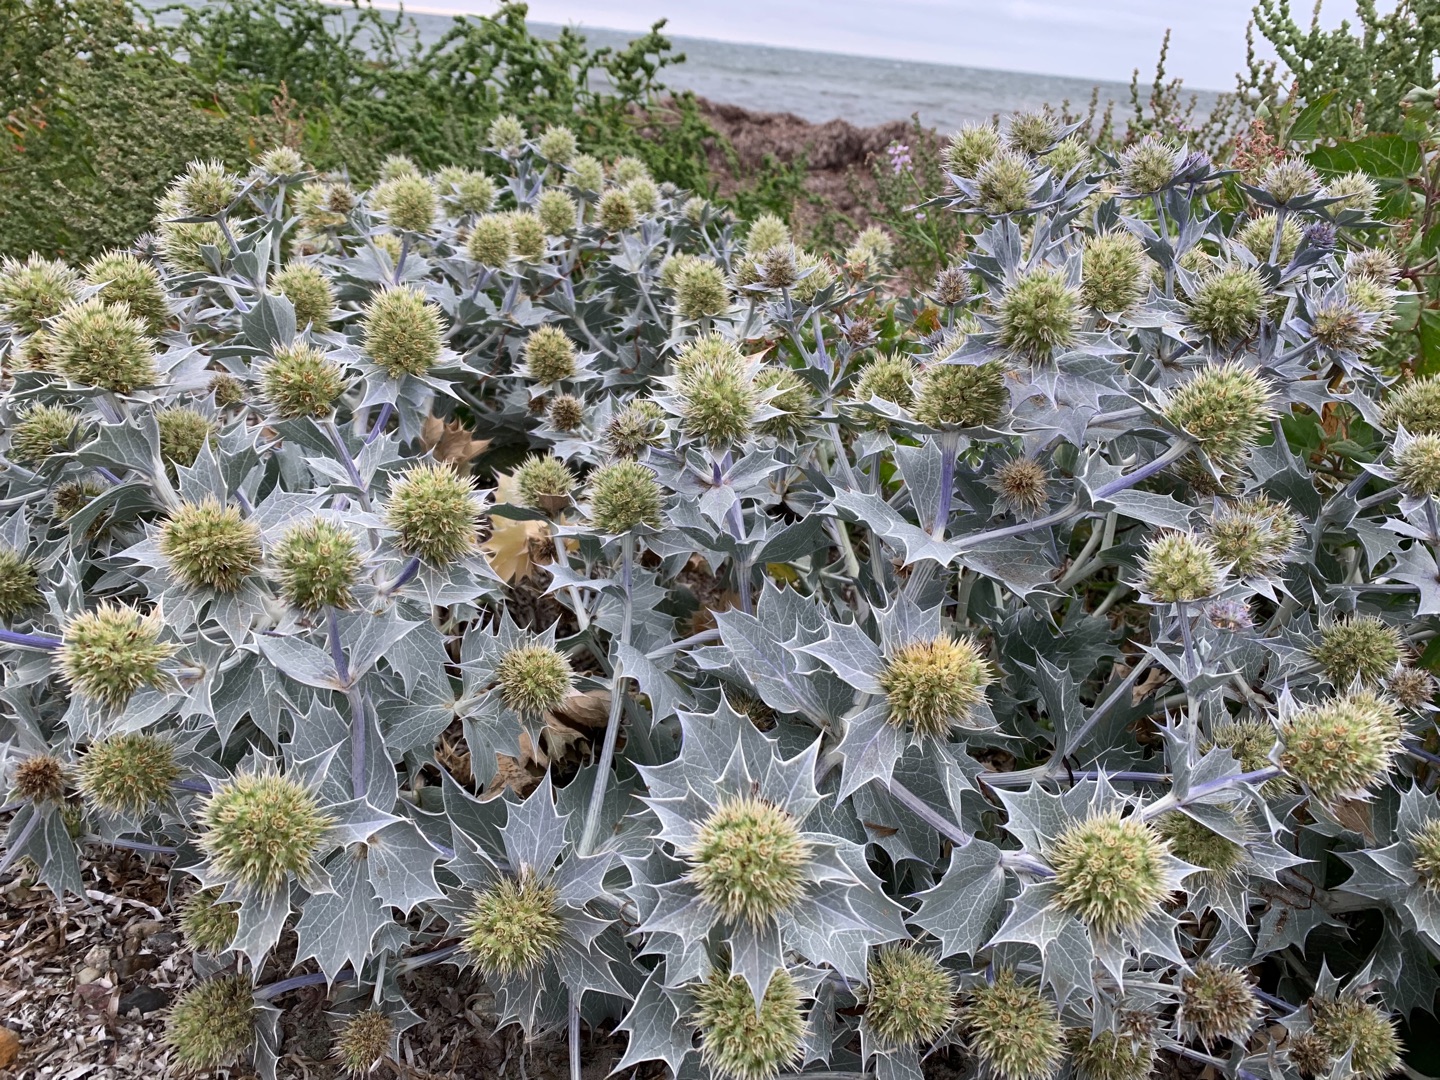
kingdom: Plantae
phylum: Tracheophyta
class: Magnoliopsida
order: Apiales
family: Apiaceae
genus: Eryngium
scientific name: Eryngium maritimum
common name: Strand-mandstro
